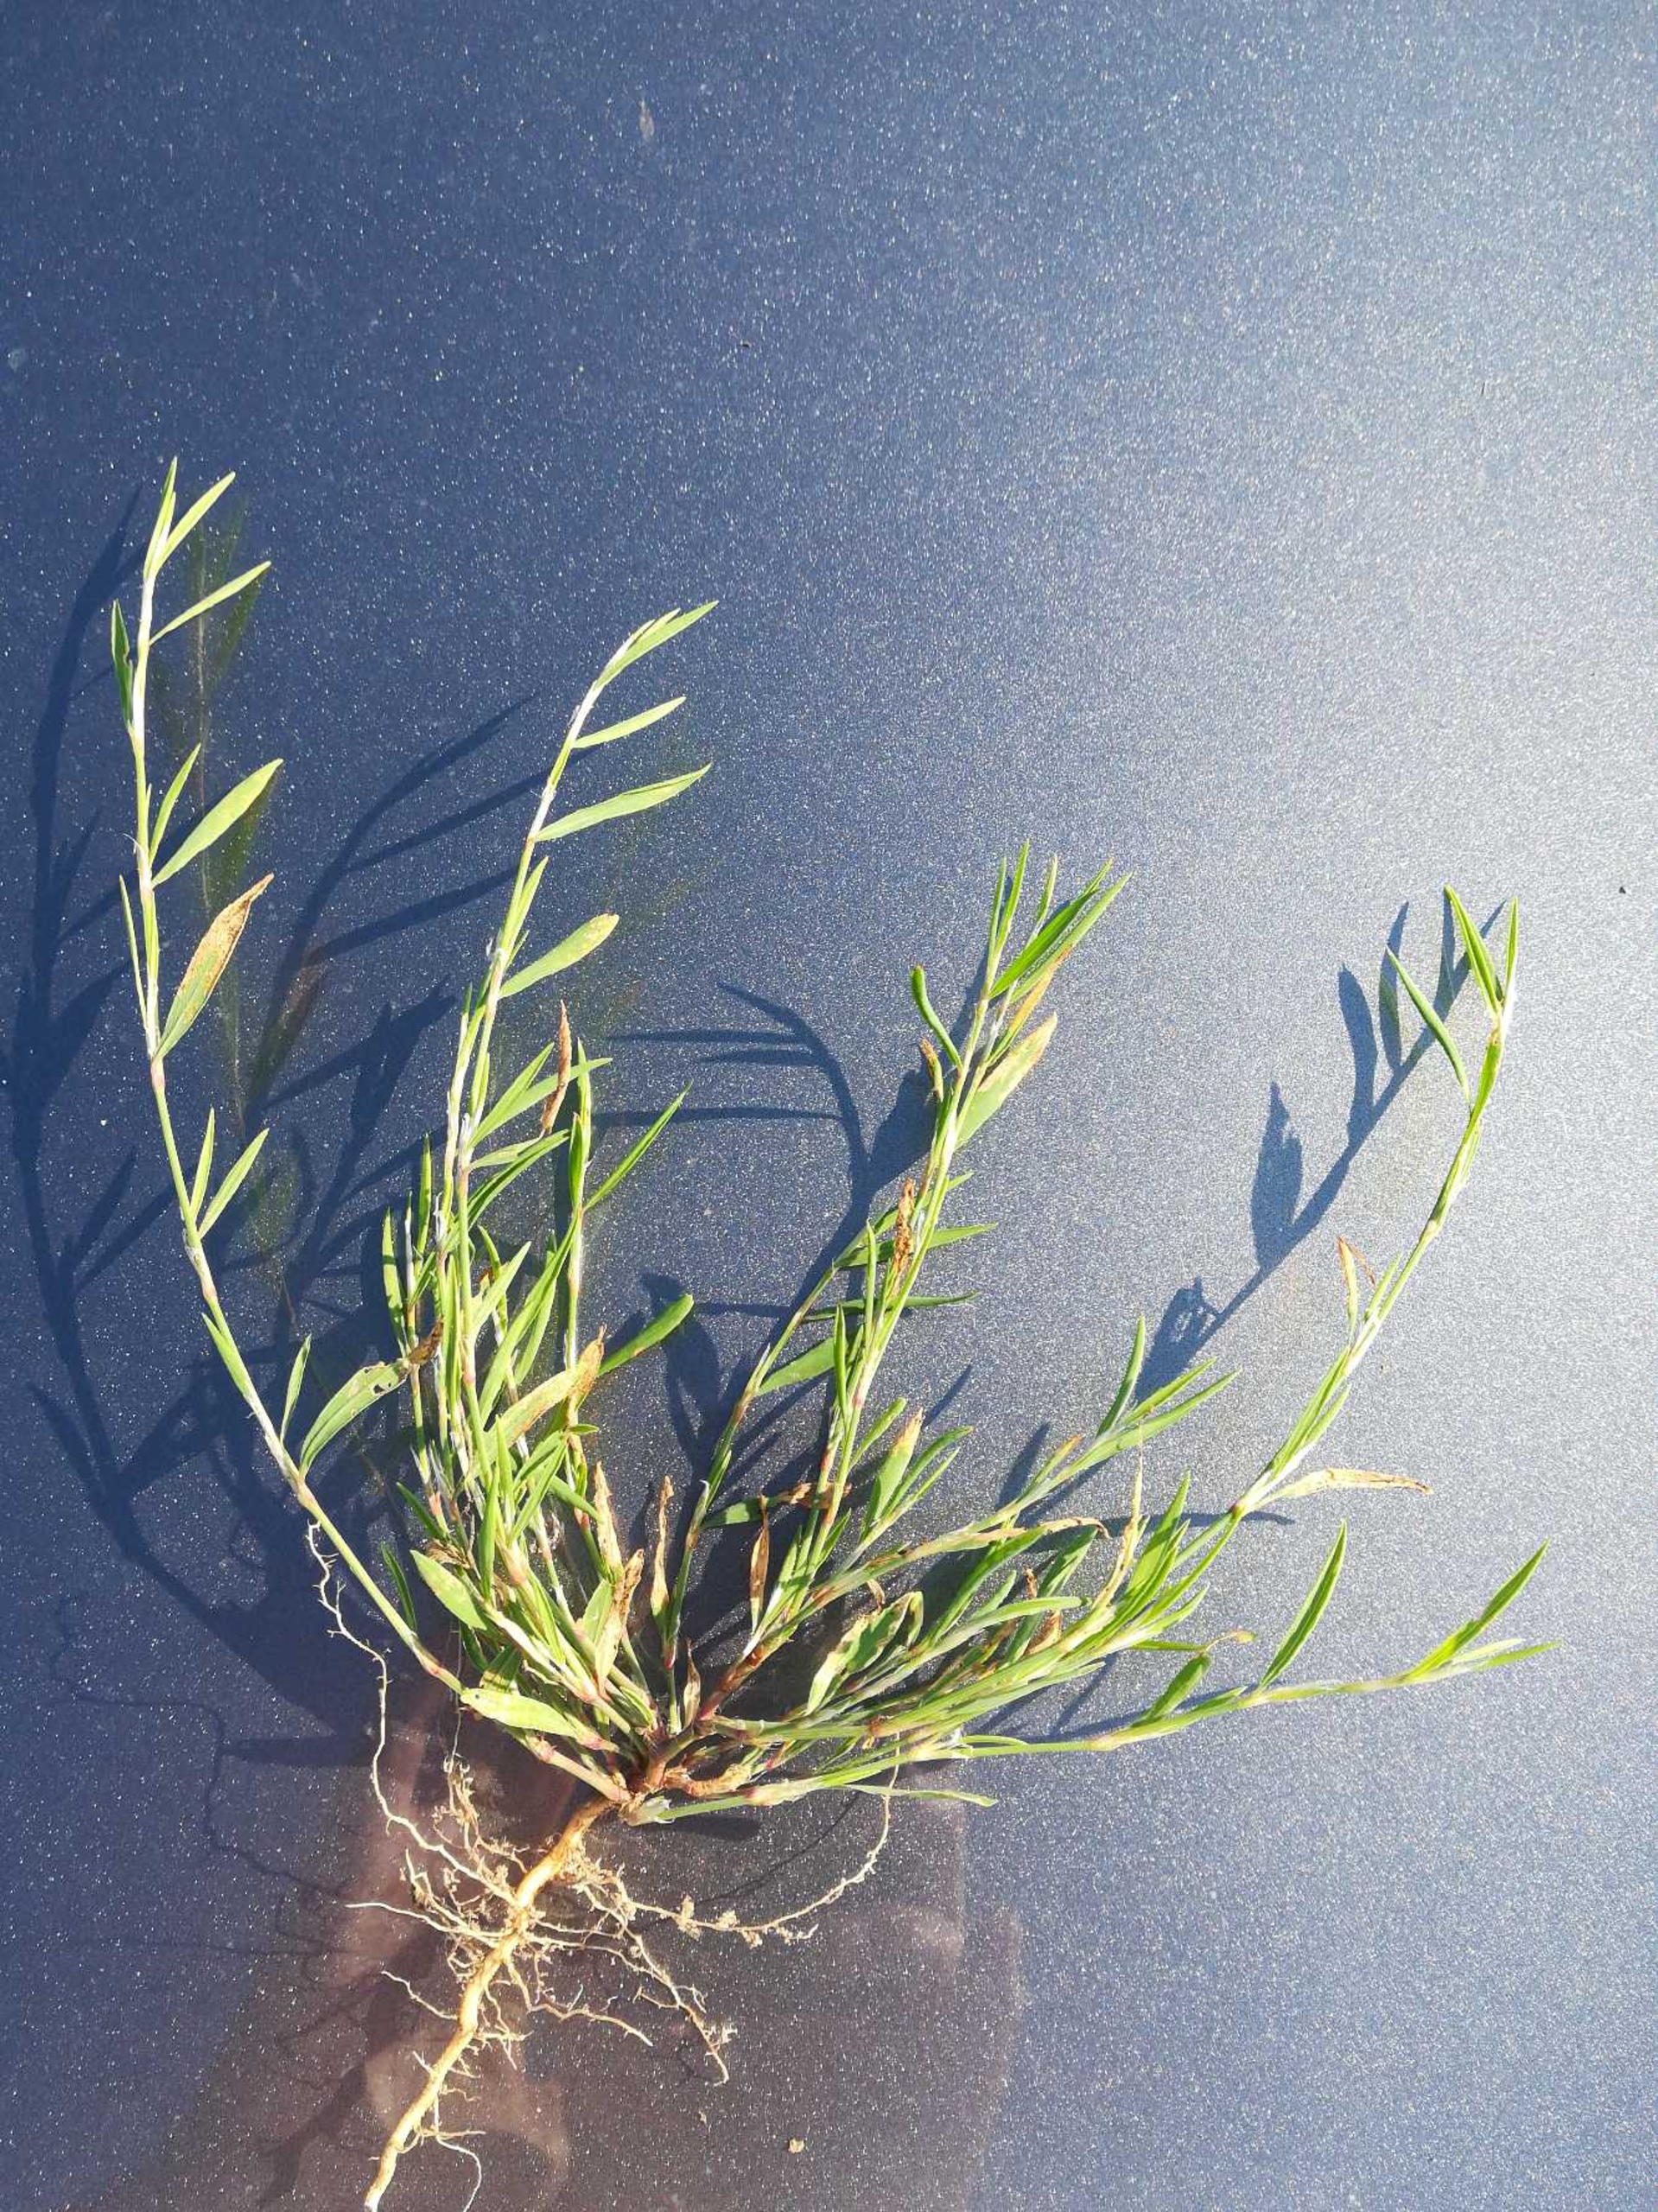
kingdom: Plantae
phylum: Tracheophyta
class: Magnoliopsida
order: Caryophyllales
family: Polygonaceae
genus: Polygonum
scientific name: Polygonum aviculare
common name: Spidsbladet vej-pileurt
